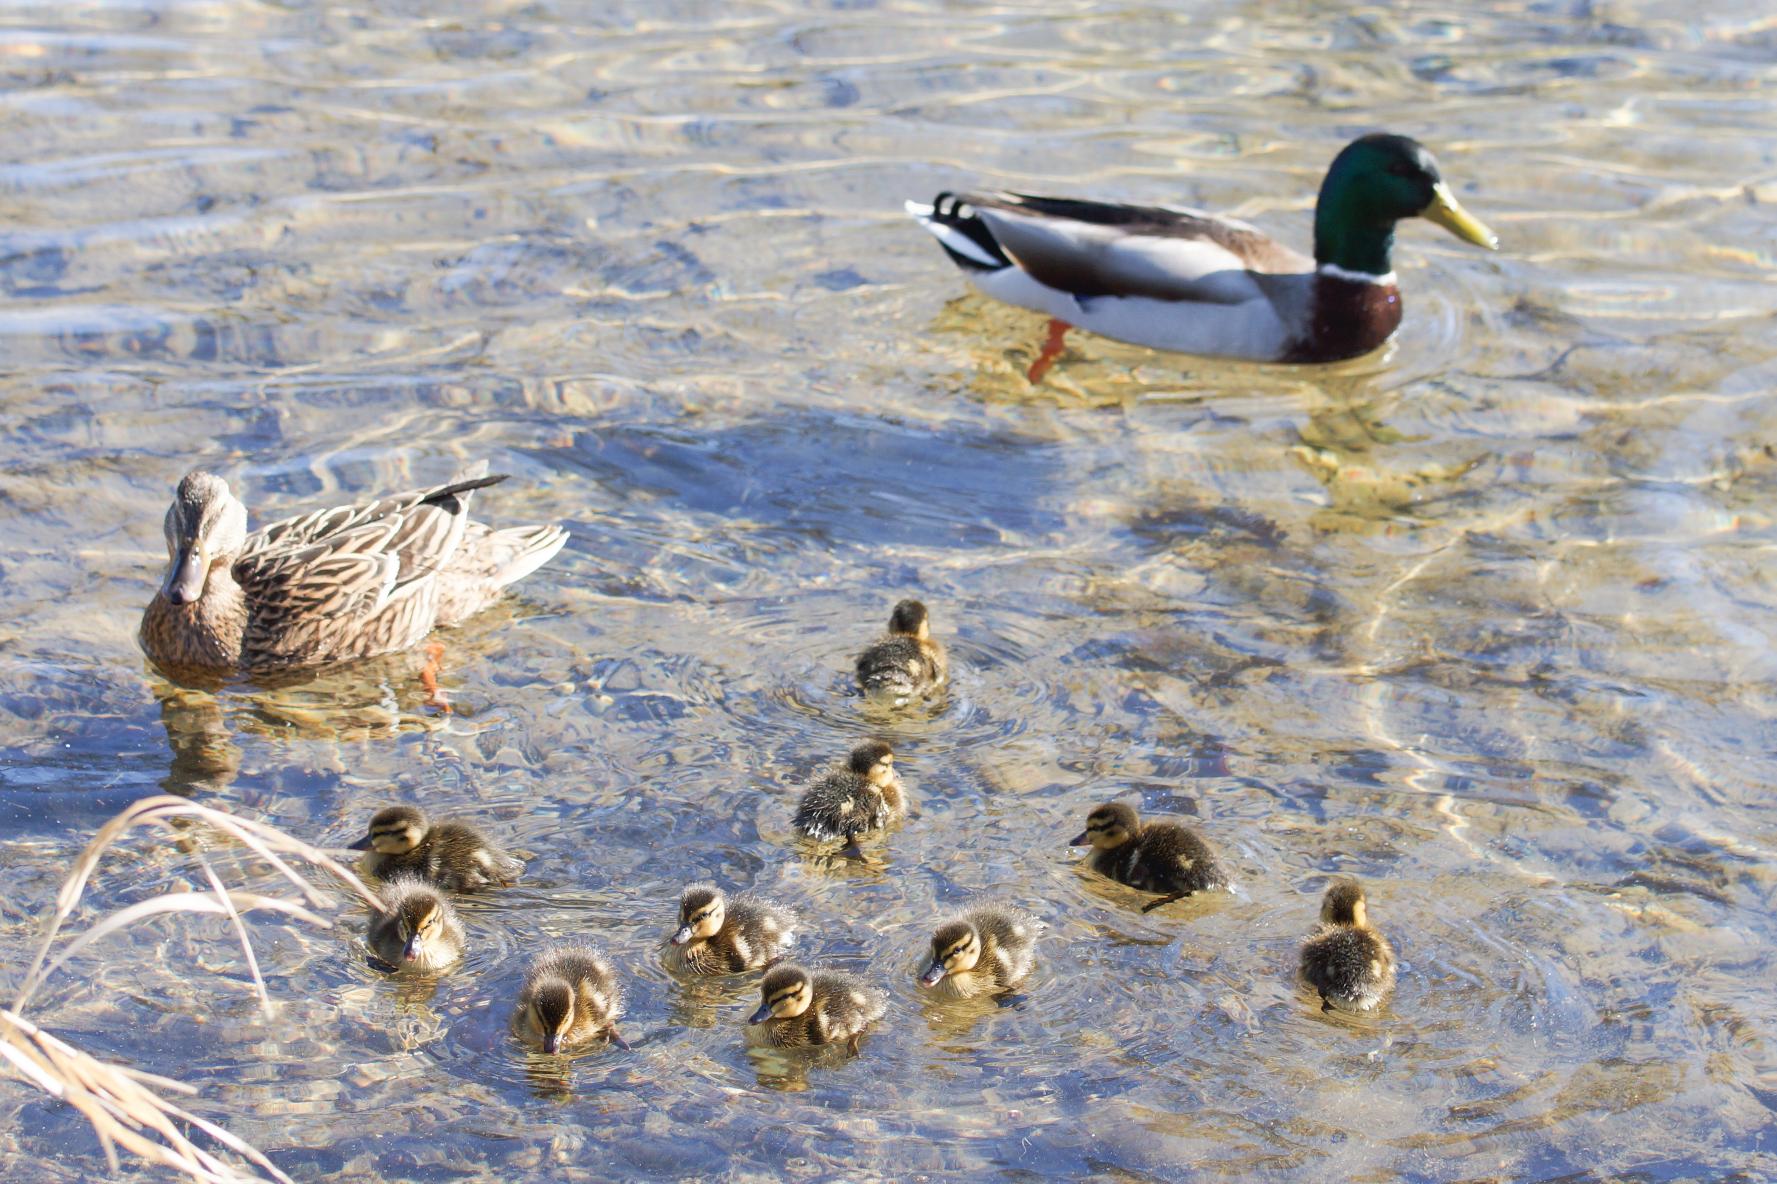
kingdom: Animalia
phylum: Chordata
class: Aves
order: Anseriformes
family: Anatidae
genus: Anas
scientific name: Anas platyrhynchos
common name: Gråand
